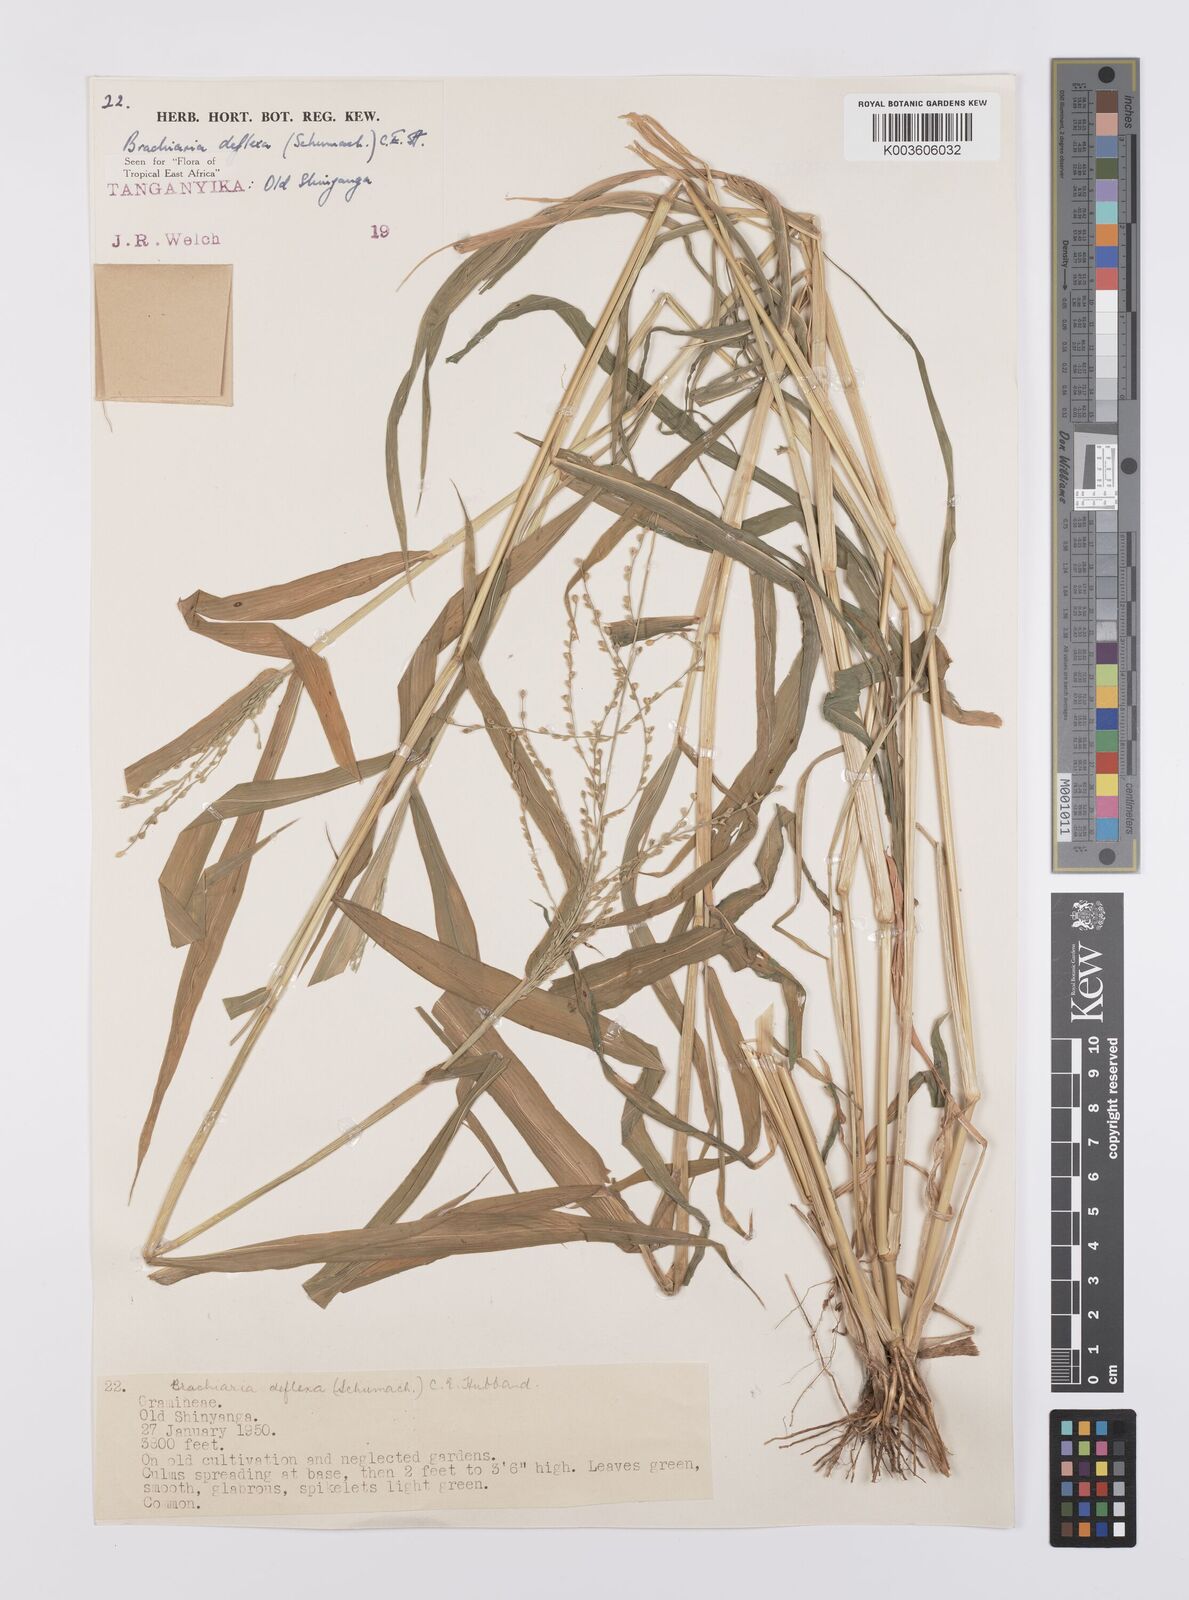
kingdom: Plantae
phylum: Tracheophyta
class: Liliopsida
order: Poales
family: Poaceae
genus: Urochloa
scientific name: Urochloa deflexa
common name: Guinea millet
